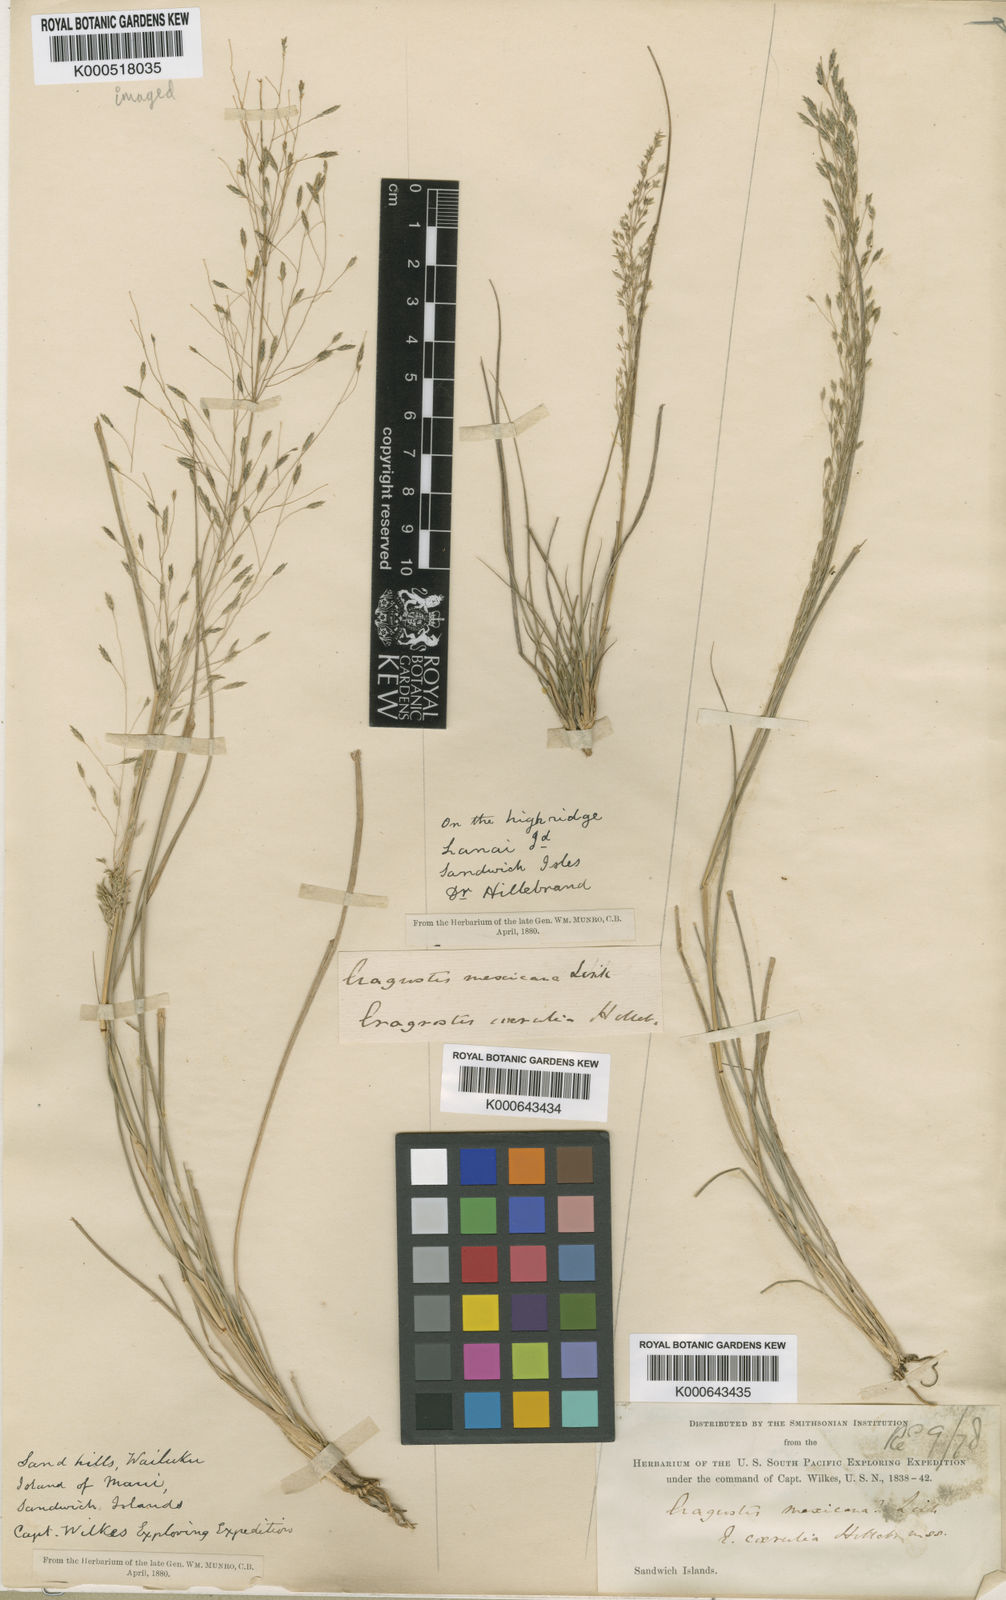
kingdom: Plantae
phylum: Tracheophyta
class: Liliopsida
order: Poales
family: Poaceae
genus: Eragrostis
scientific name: Eragrostis mauiensis
